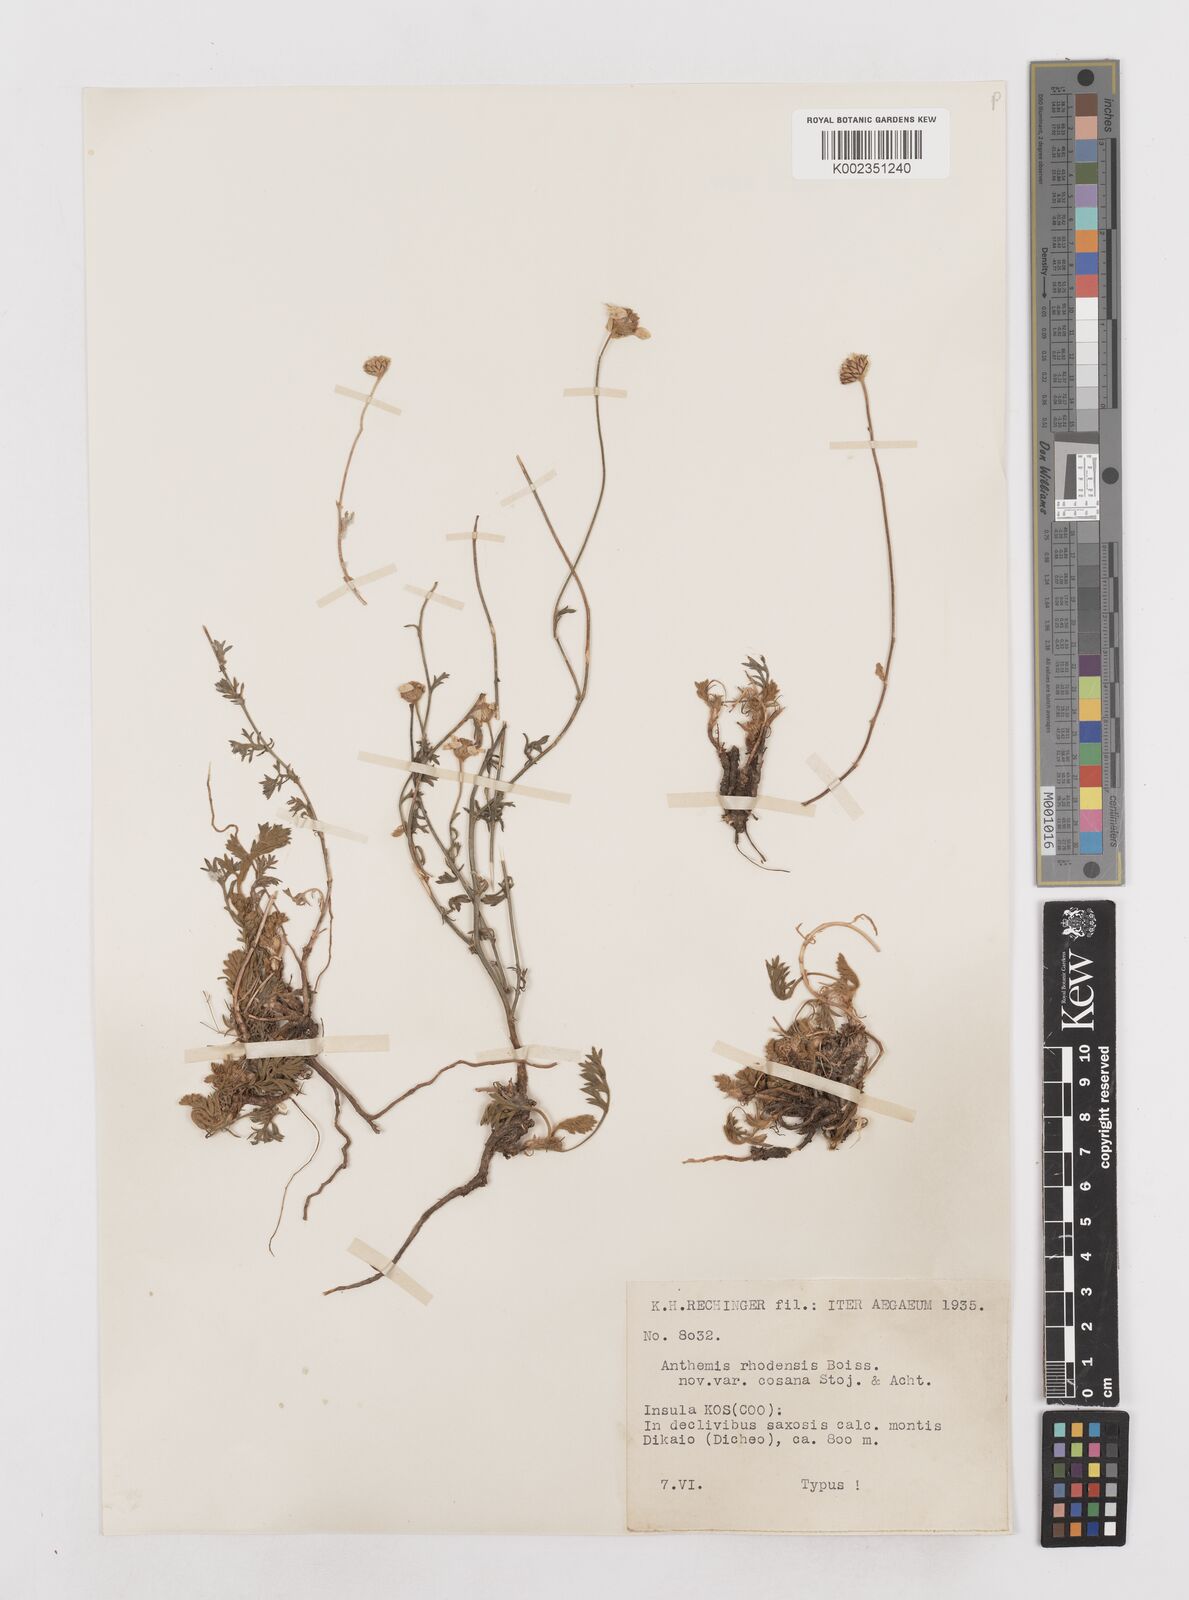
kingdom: Plantae
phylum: Tracheophyta
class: Magnoliopsida
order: Asterales
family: Asteraceae
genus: Anthemis
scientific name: Anthemis cretica
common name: Mountain dog-daisy
